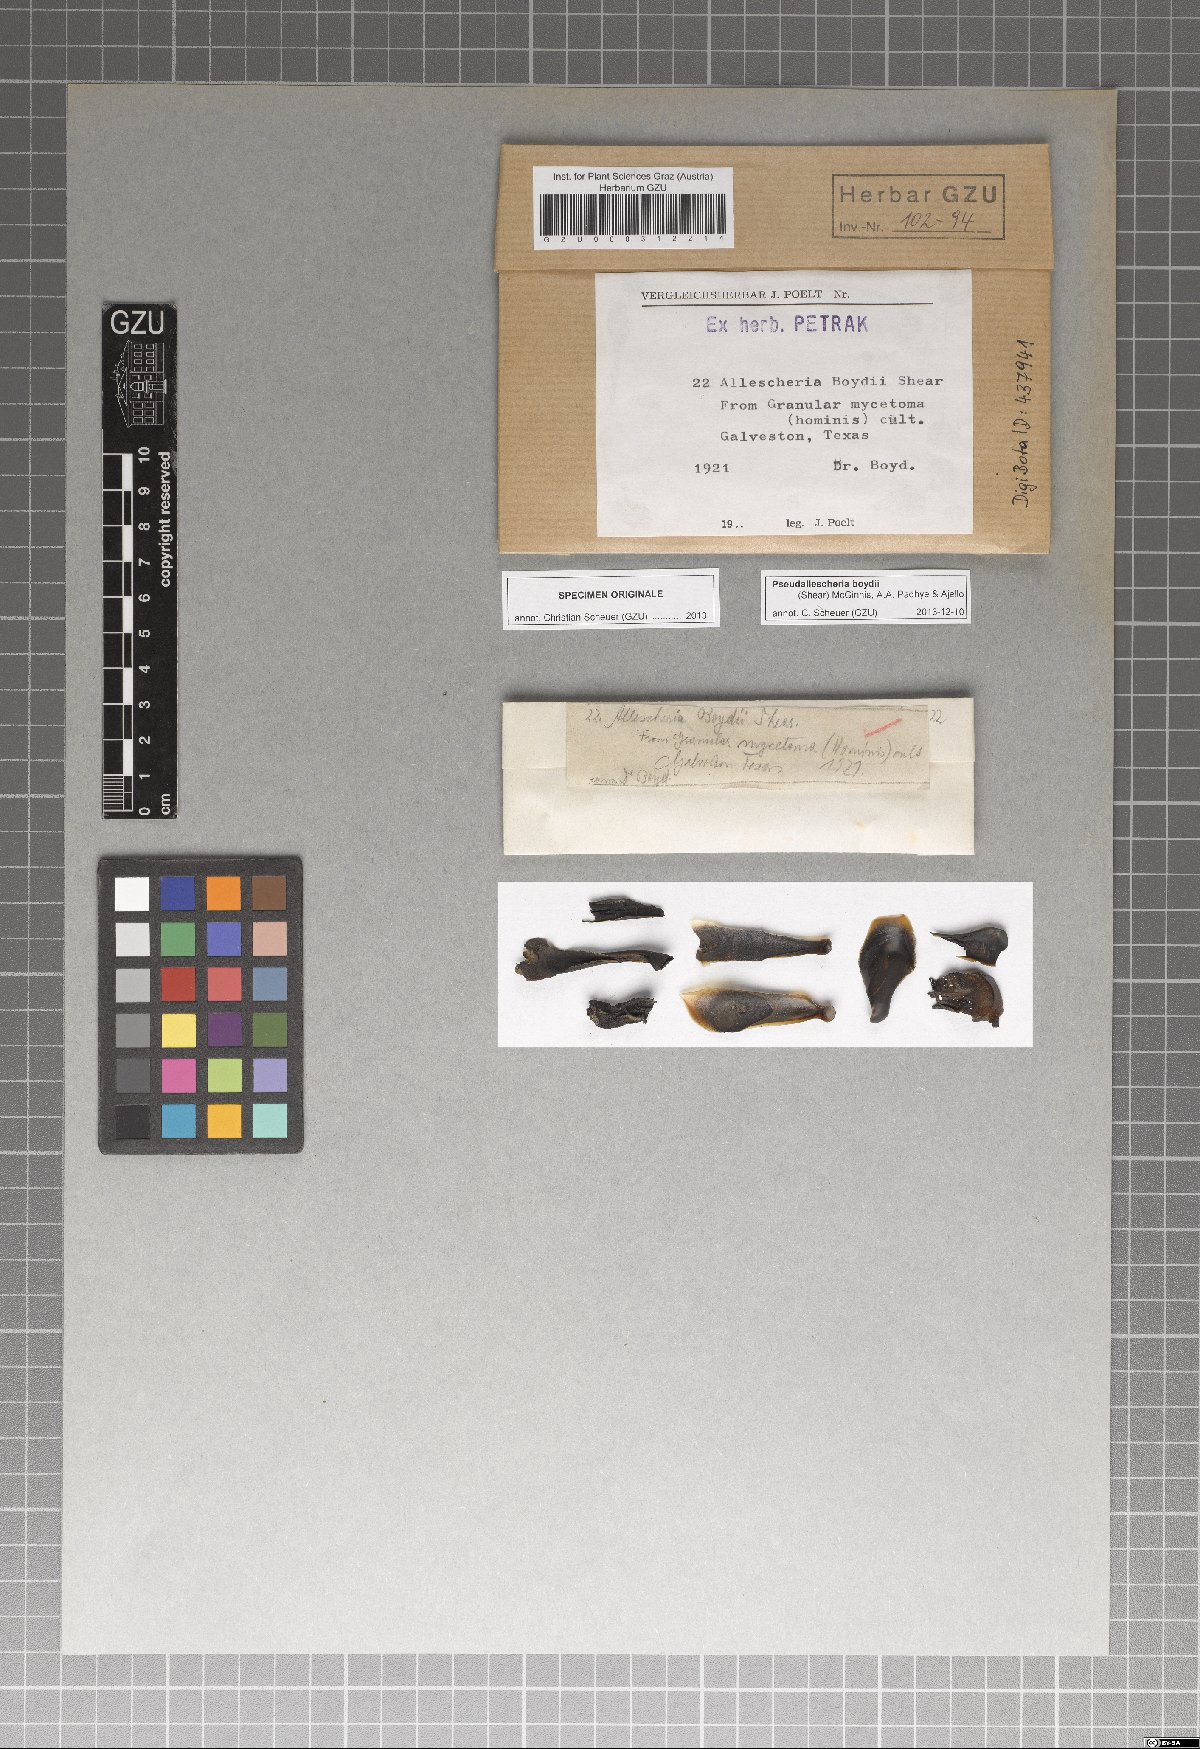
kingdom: Fungi
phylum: Ascomycota
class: Sordariomycetes
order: Microascales
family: Microascaceae
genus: Pseudallescheria
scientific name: Pseudallescheria boydii
